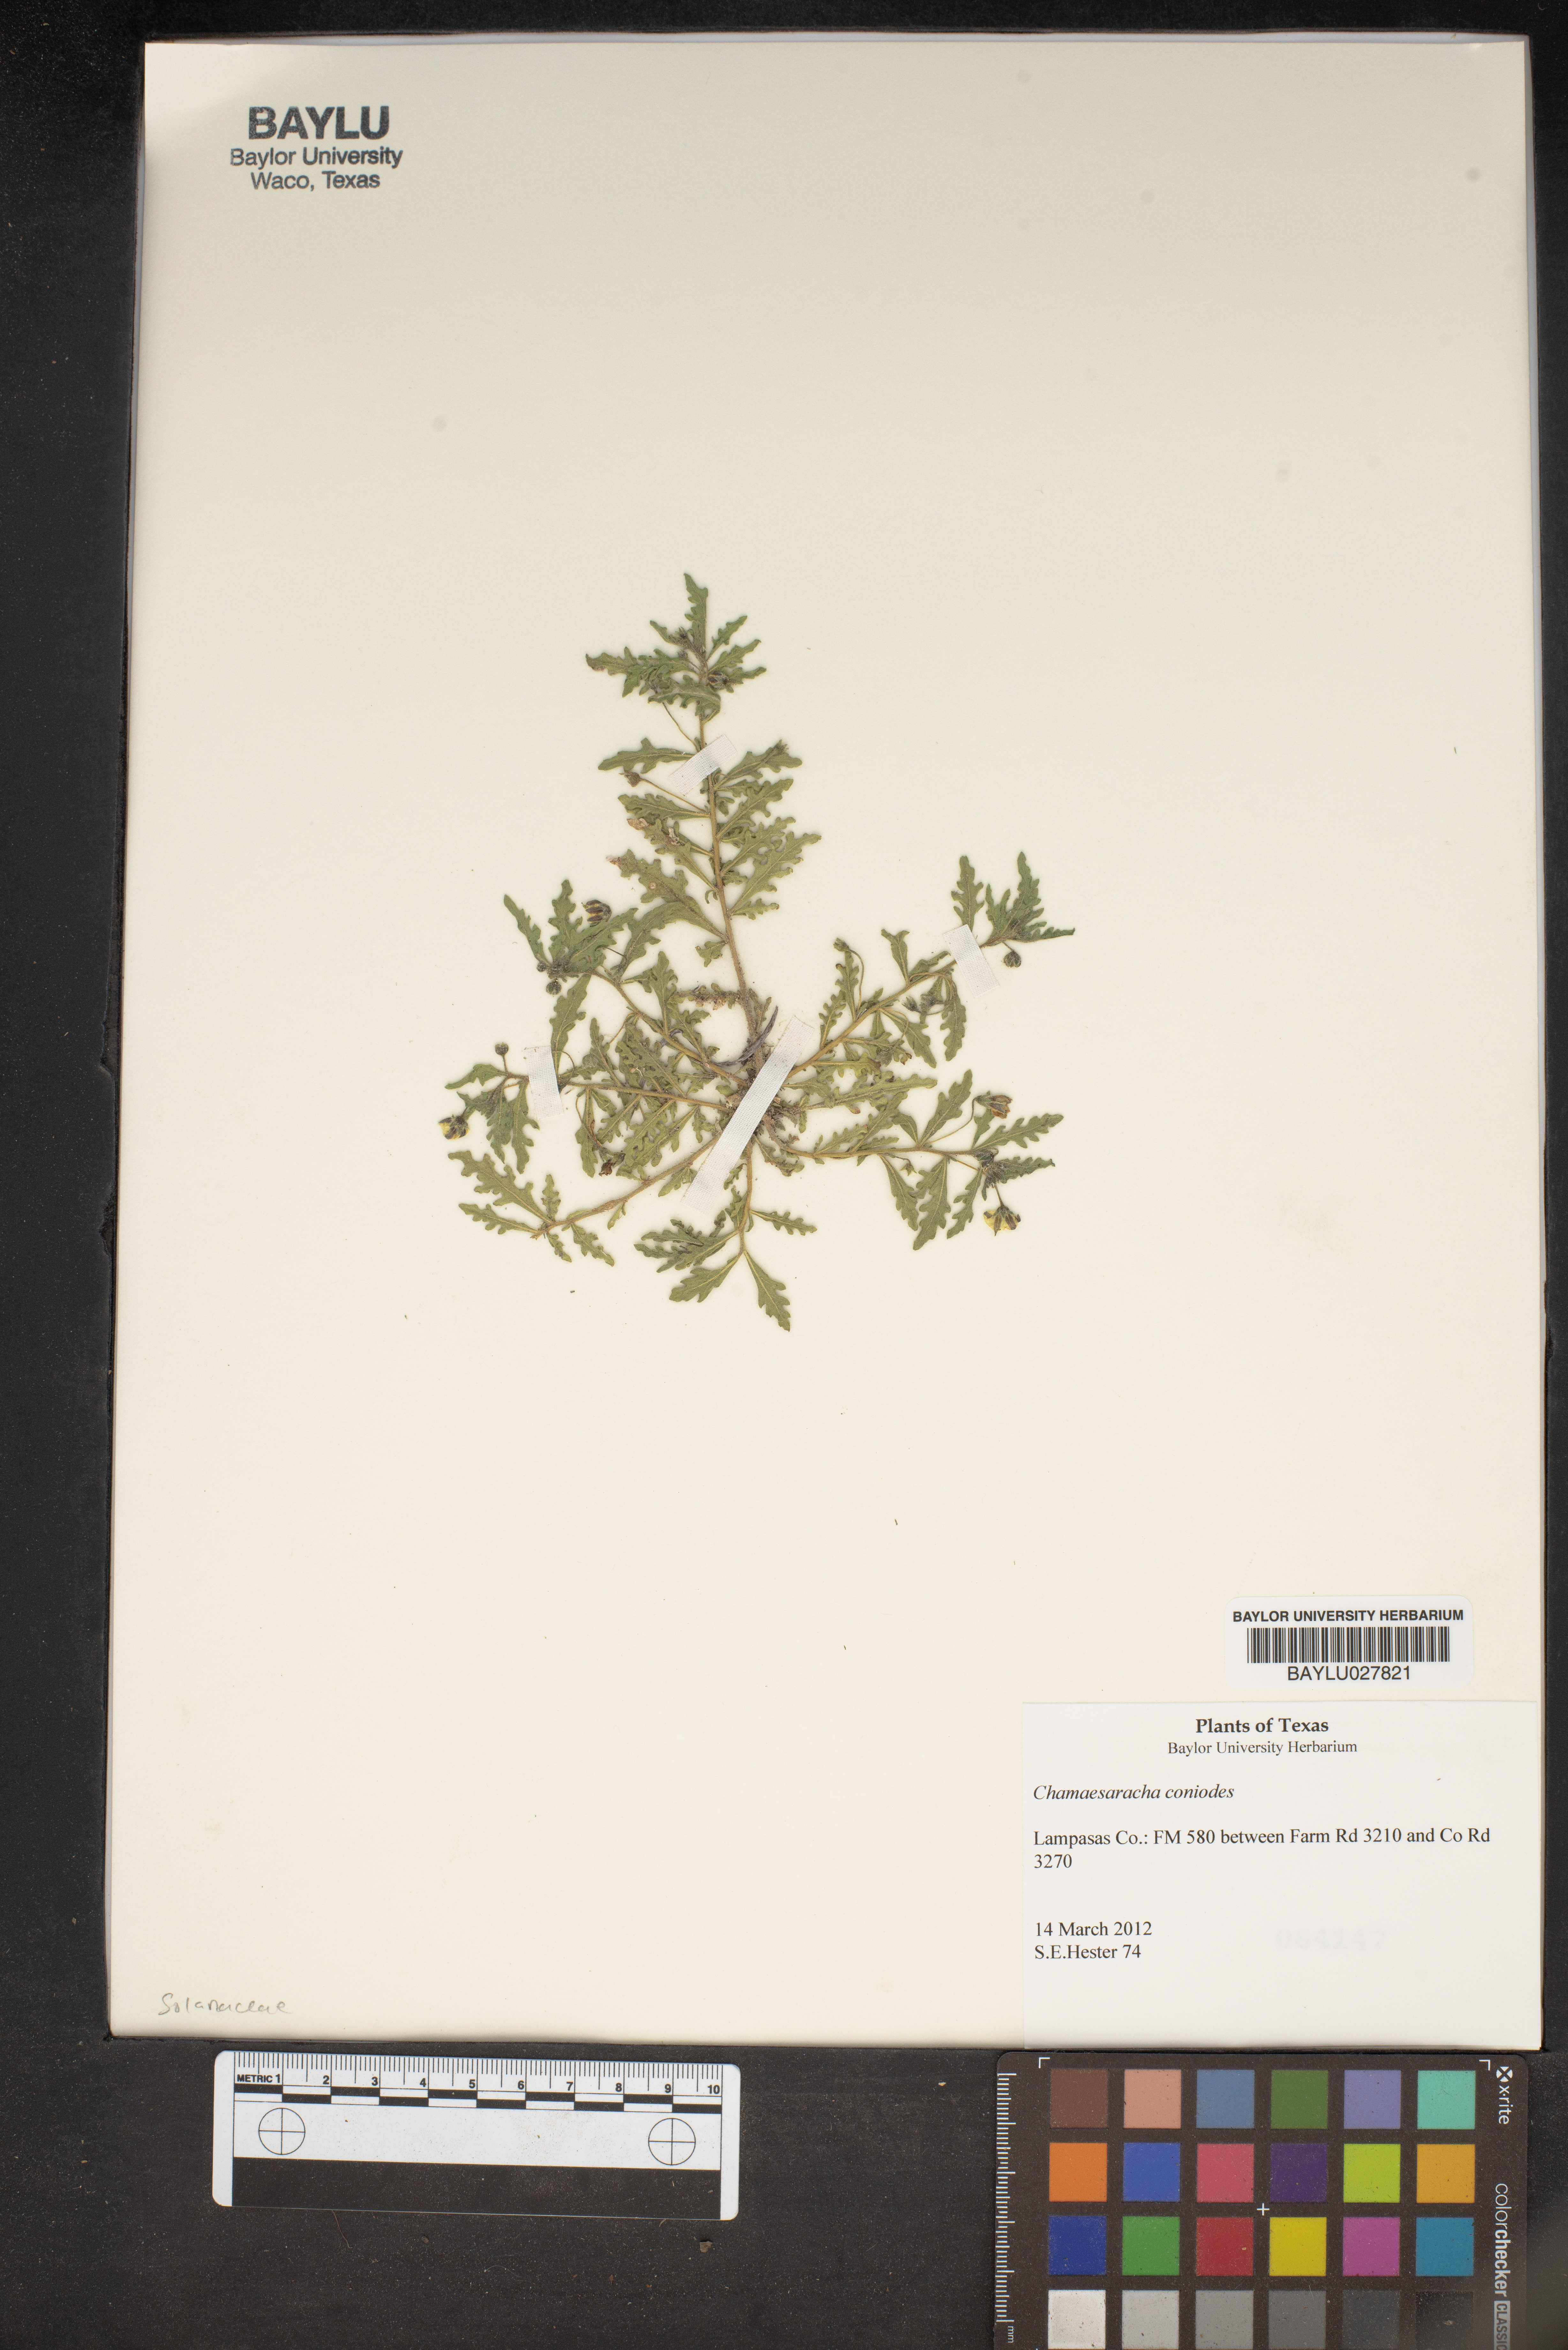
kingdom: Plantae
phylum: Tracheophyta
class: Magnoliopsida
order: Solanales
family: Solanaceae
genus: Chamaesaracha
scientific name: Chamaesaracha coniodes
